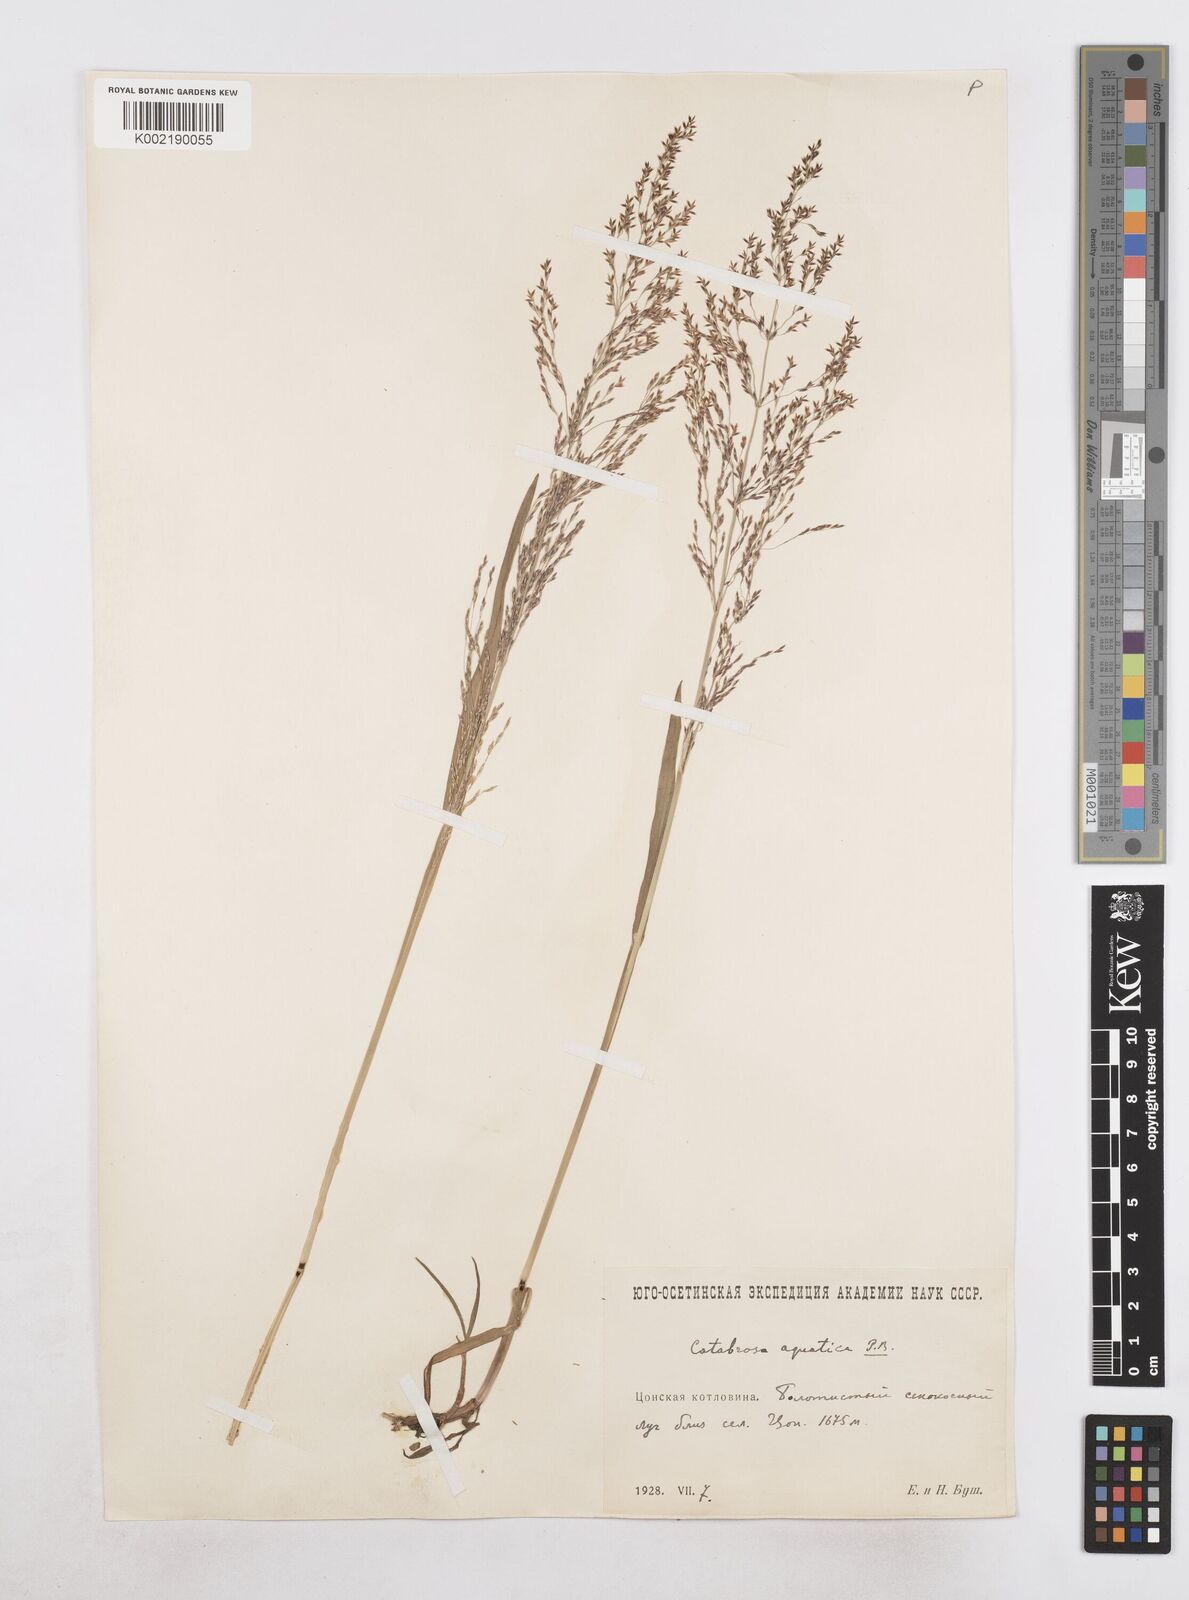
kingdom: Plantae
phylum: Tracheophyta
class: Liliopsida
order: Poales
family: Poaceae
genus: Catabrosa
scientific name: Catabrosa aquatica
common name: Whorl-grass
